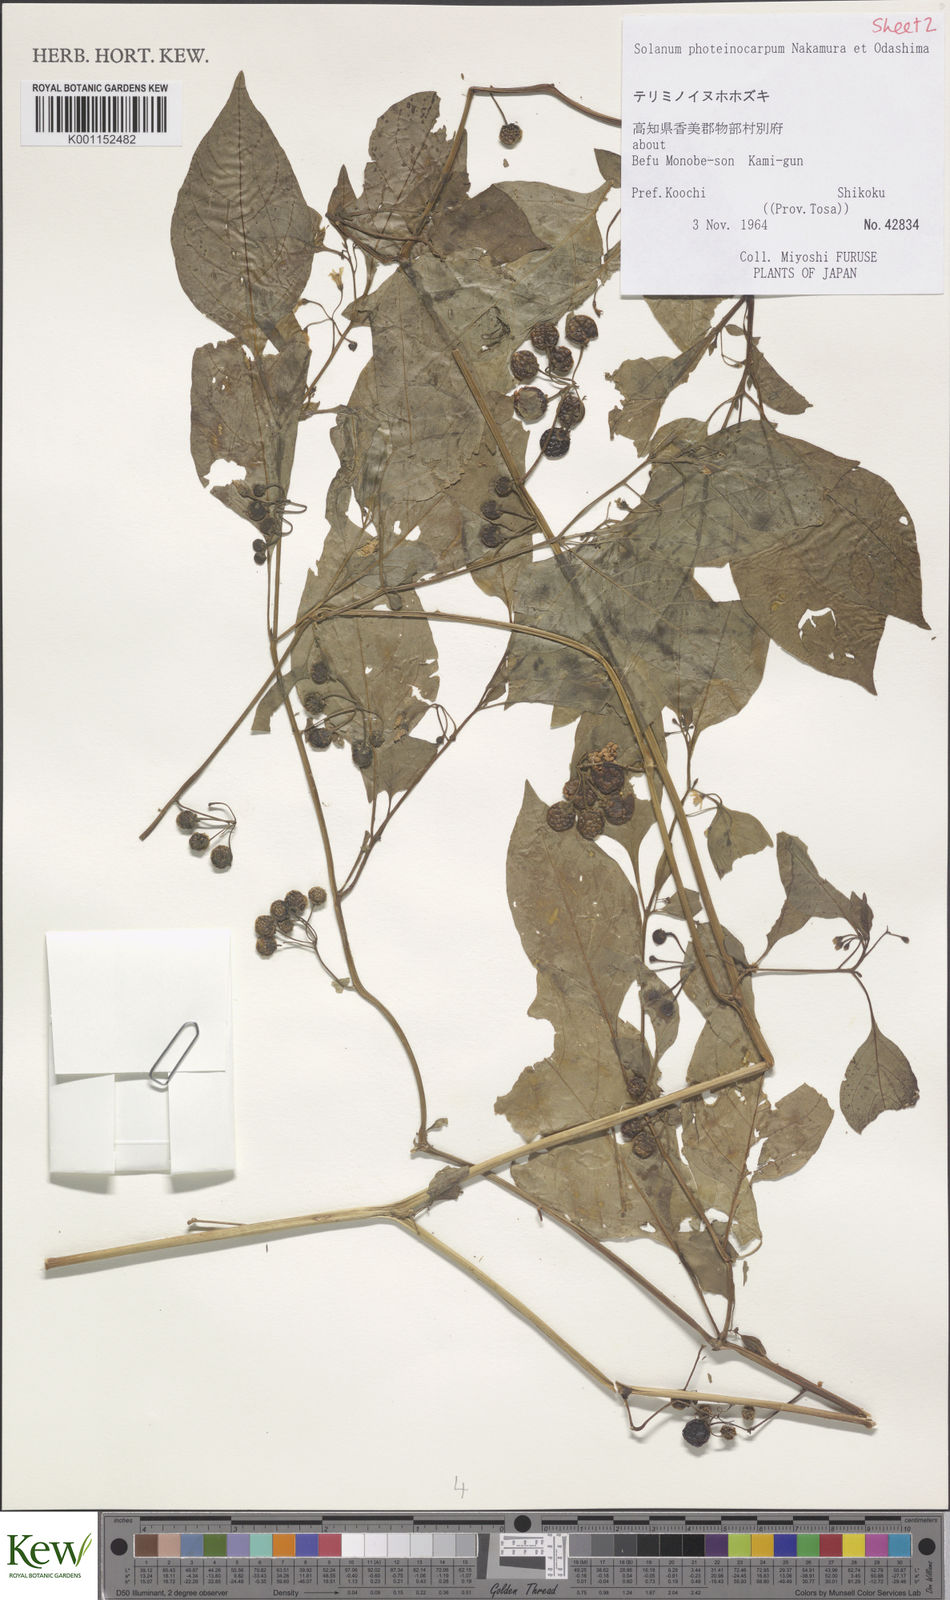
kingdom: Plantae
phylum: Tracheophyta
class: Magnoliopsida
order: Solanales
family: Solanaceae
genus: Solanum
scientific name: Solanum americanum
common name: American black nightshade
